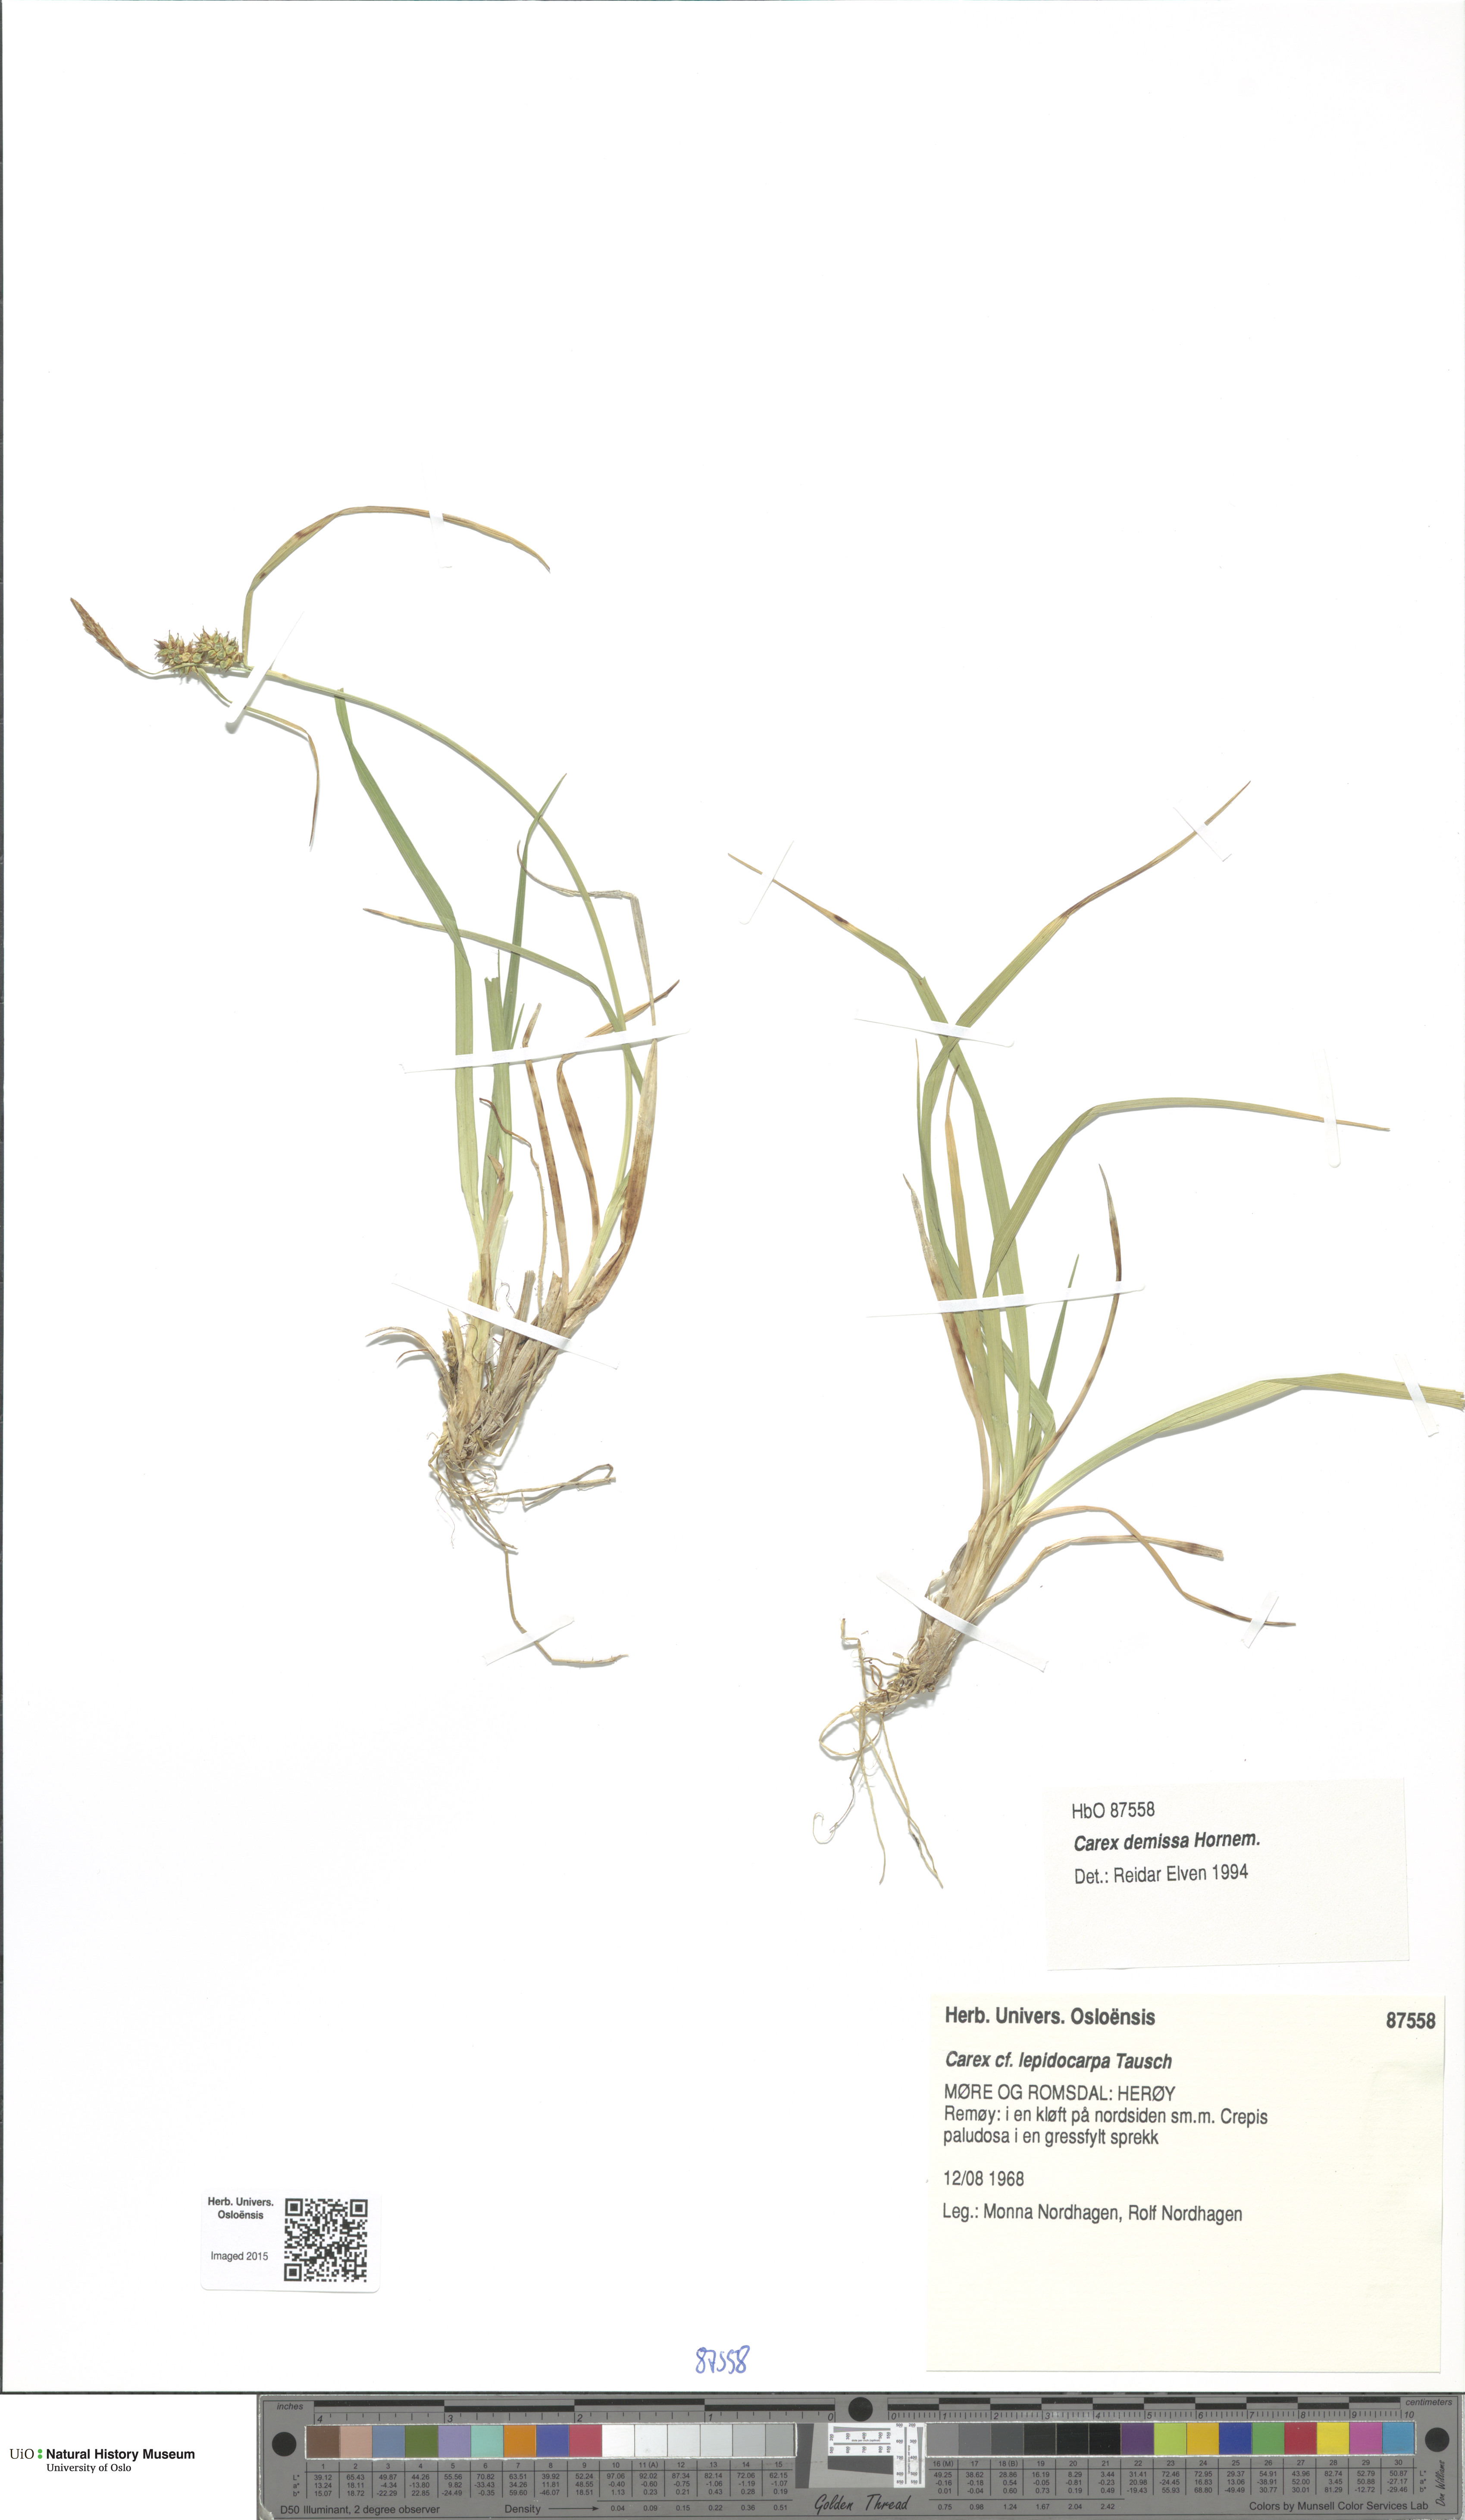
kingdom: Plantae
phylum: Tracheophyta
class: Liliopsida
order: Poales
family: Cyperaceae
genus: Carex
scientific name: Carex demissa
